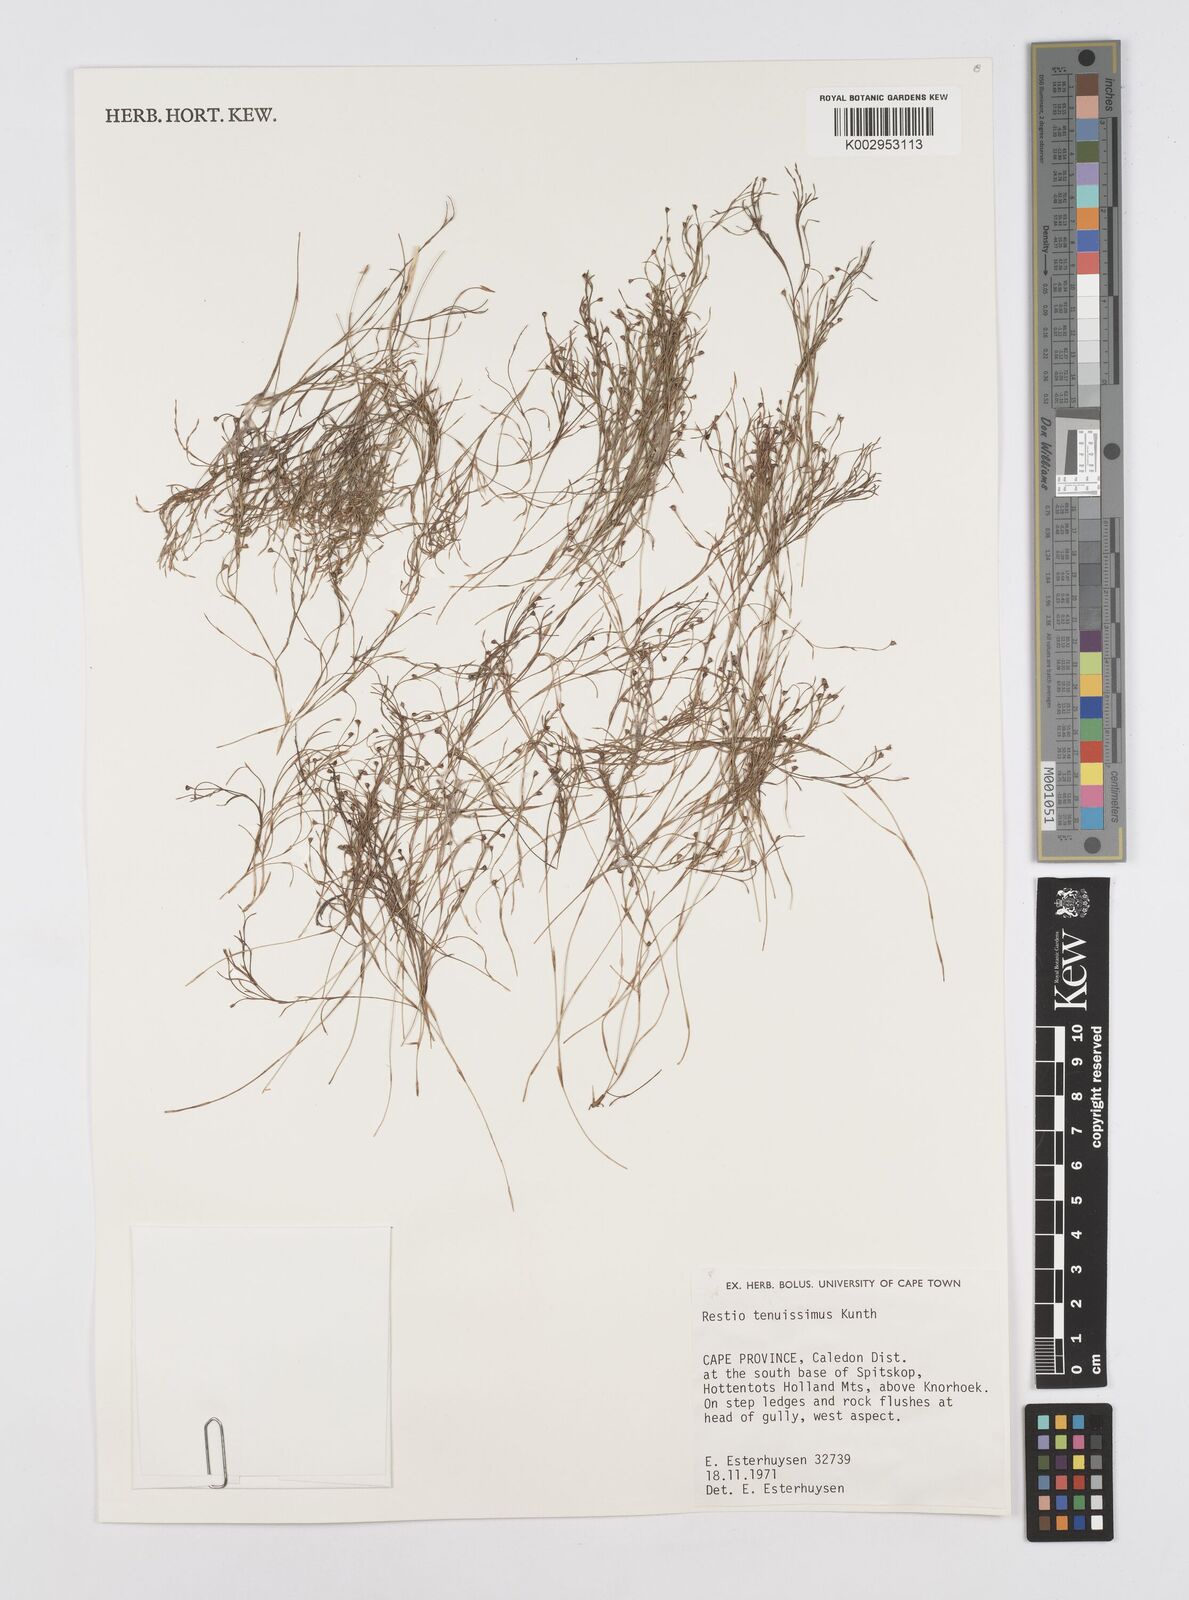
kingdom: Plantae
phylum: Tracheophyta
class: Liliopsida
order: Poales
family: Restionaceae
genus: Restio
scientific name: Restio tenuissimus
